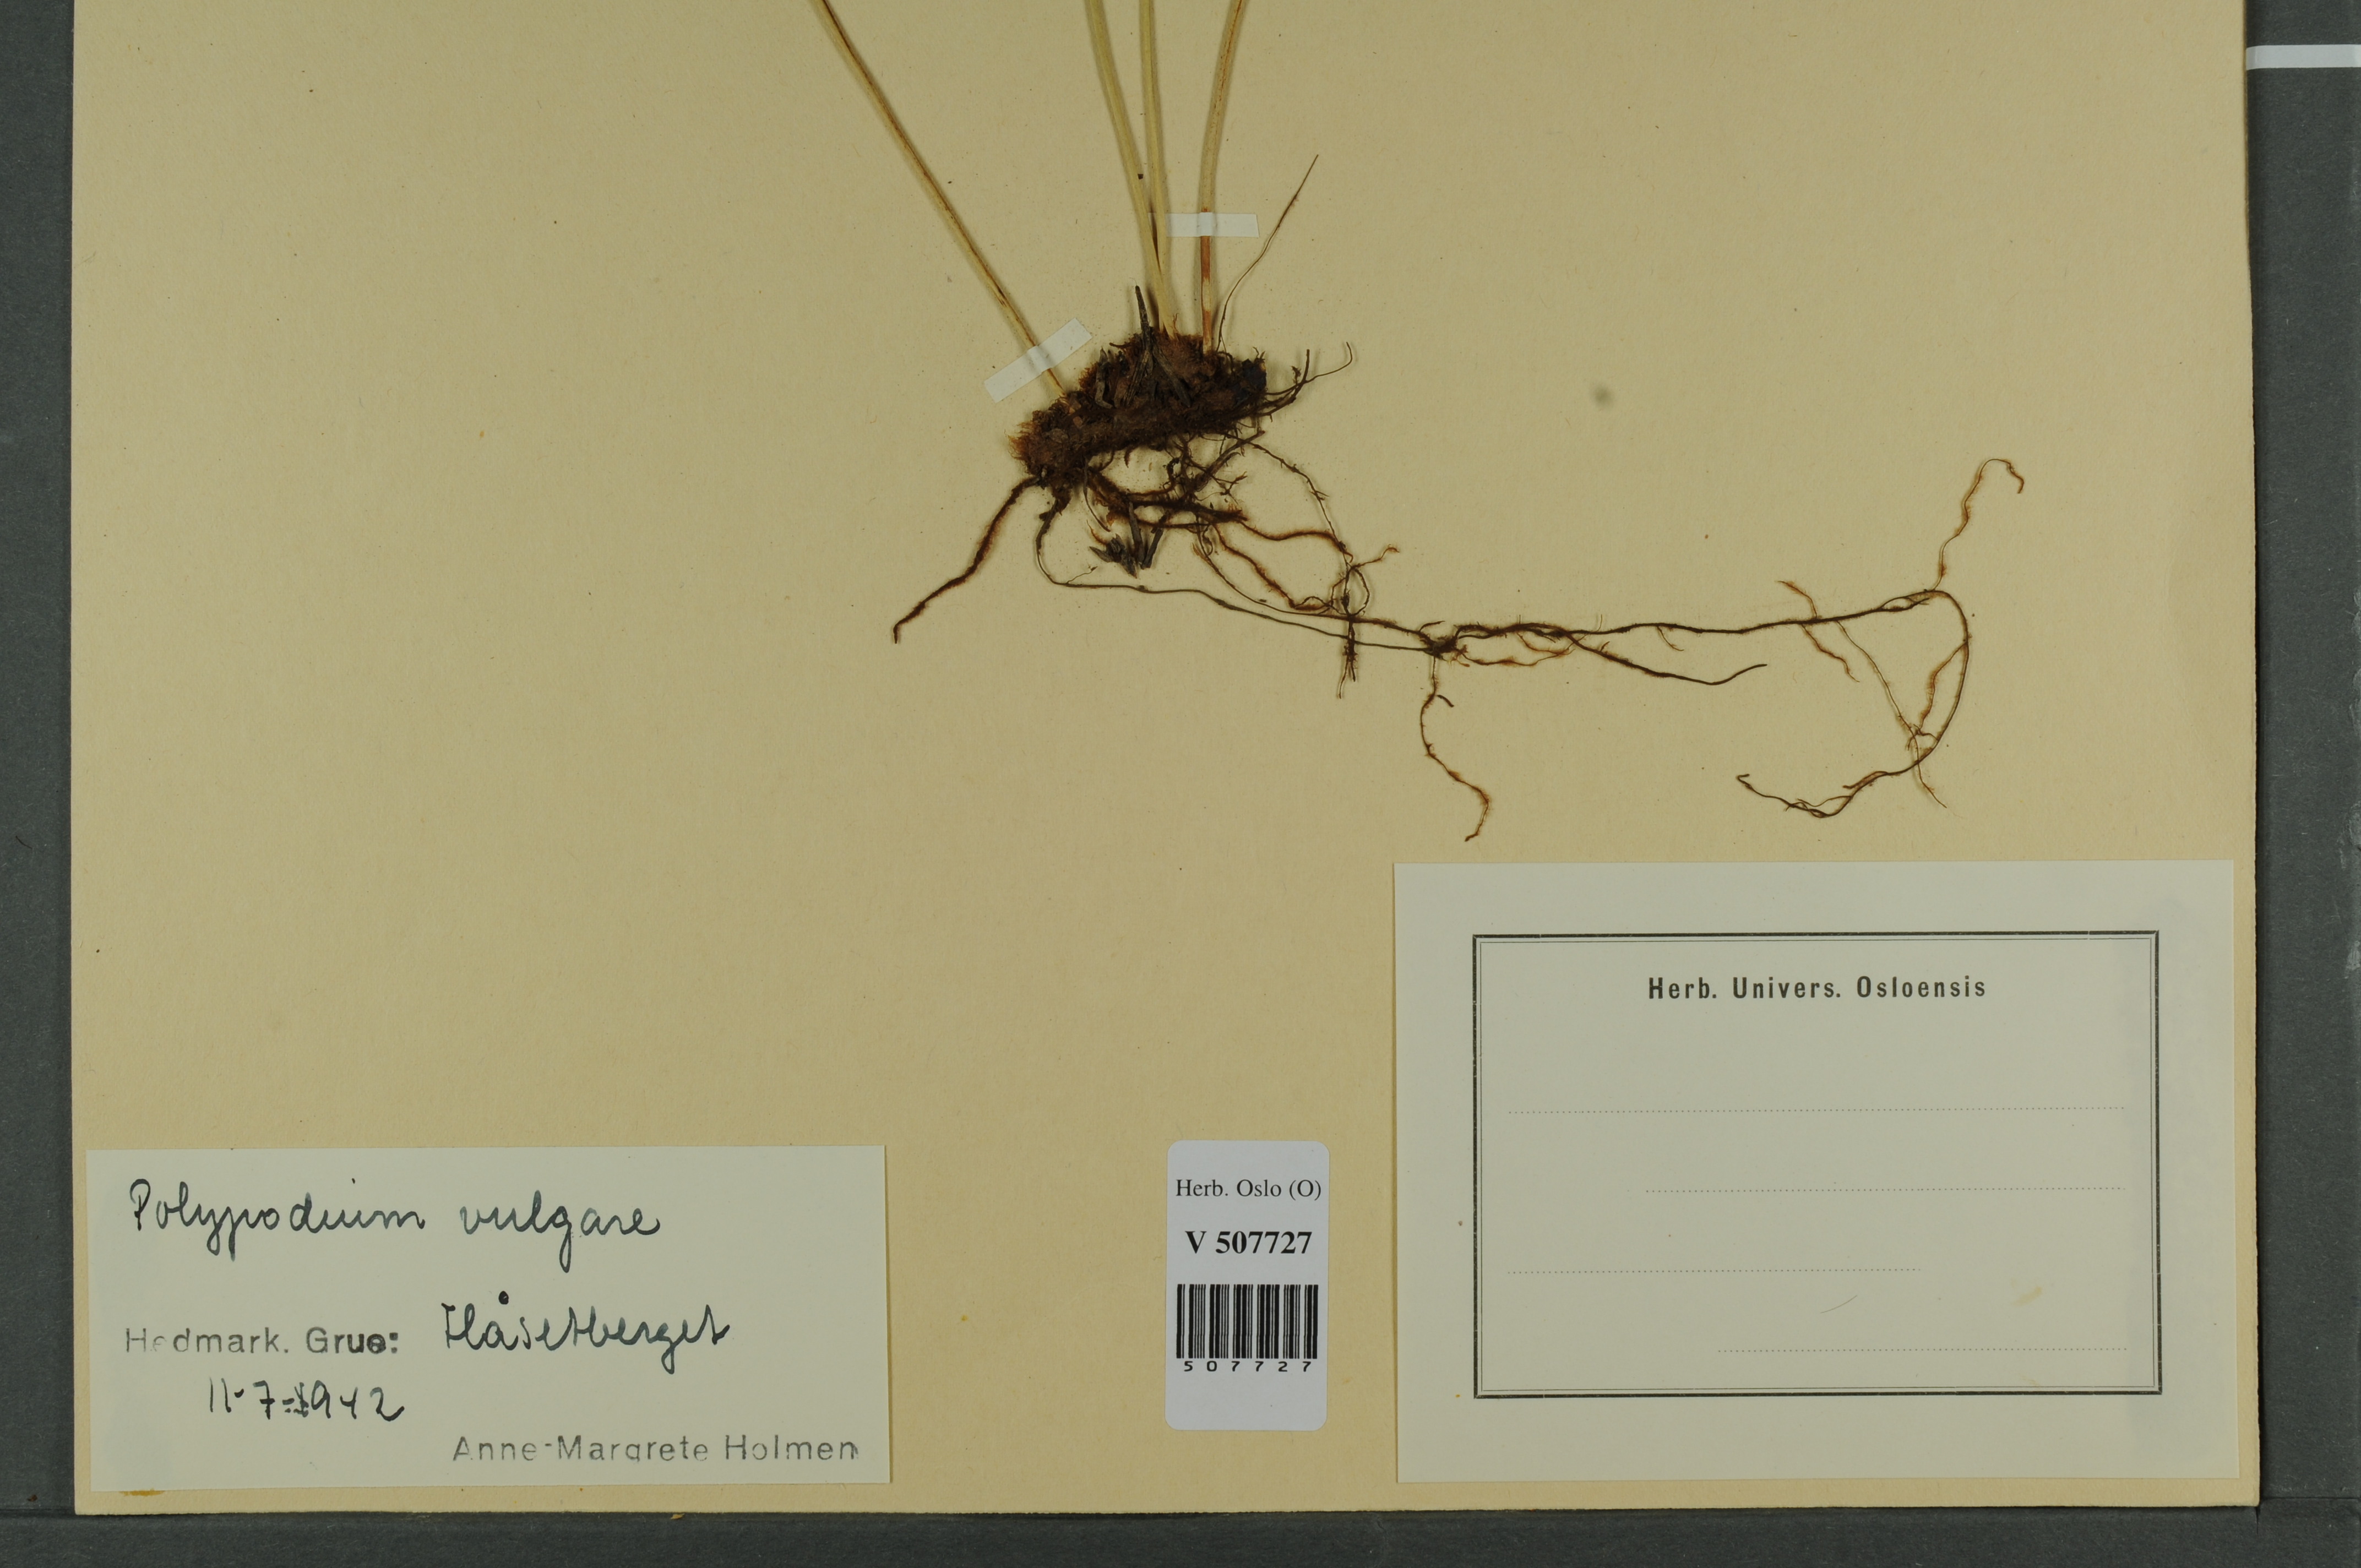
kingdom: Plantae
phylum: Tracheophyta
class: Polypodiopsida
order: Polypodiales
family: Polypodiaceae
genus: Polypodium
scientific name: Polypodium vulgare
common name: Common polypody
